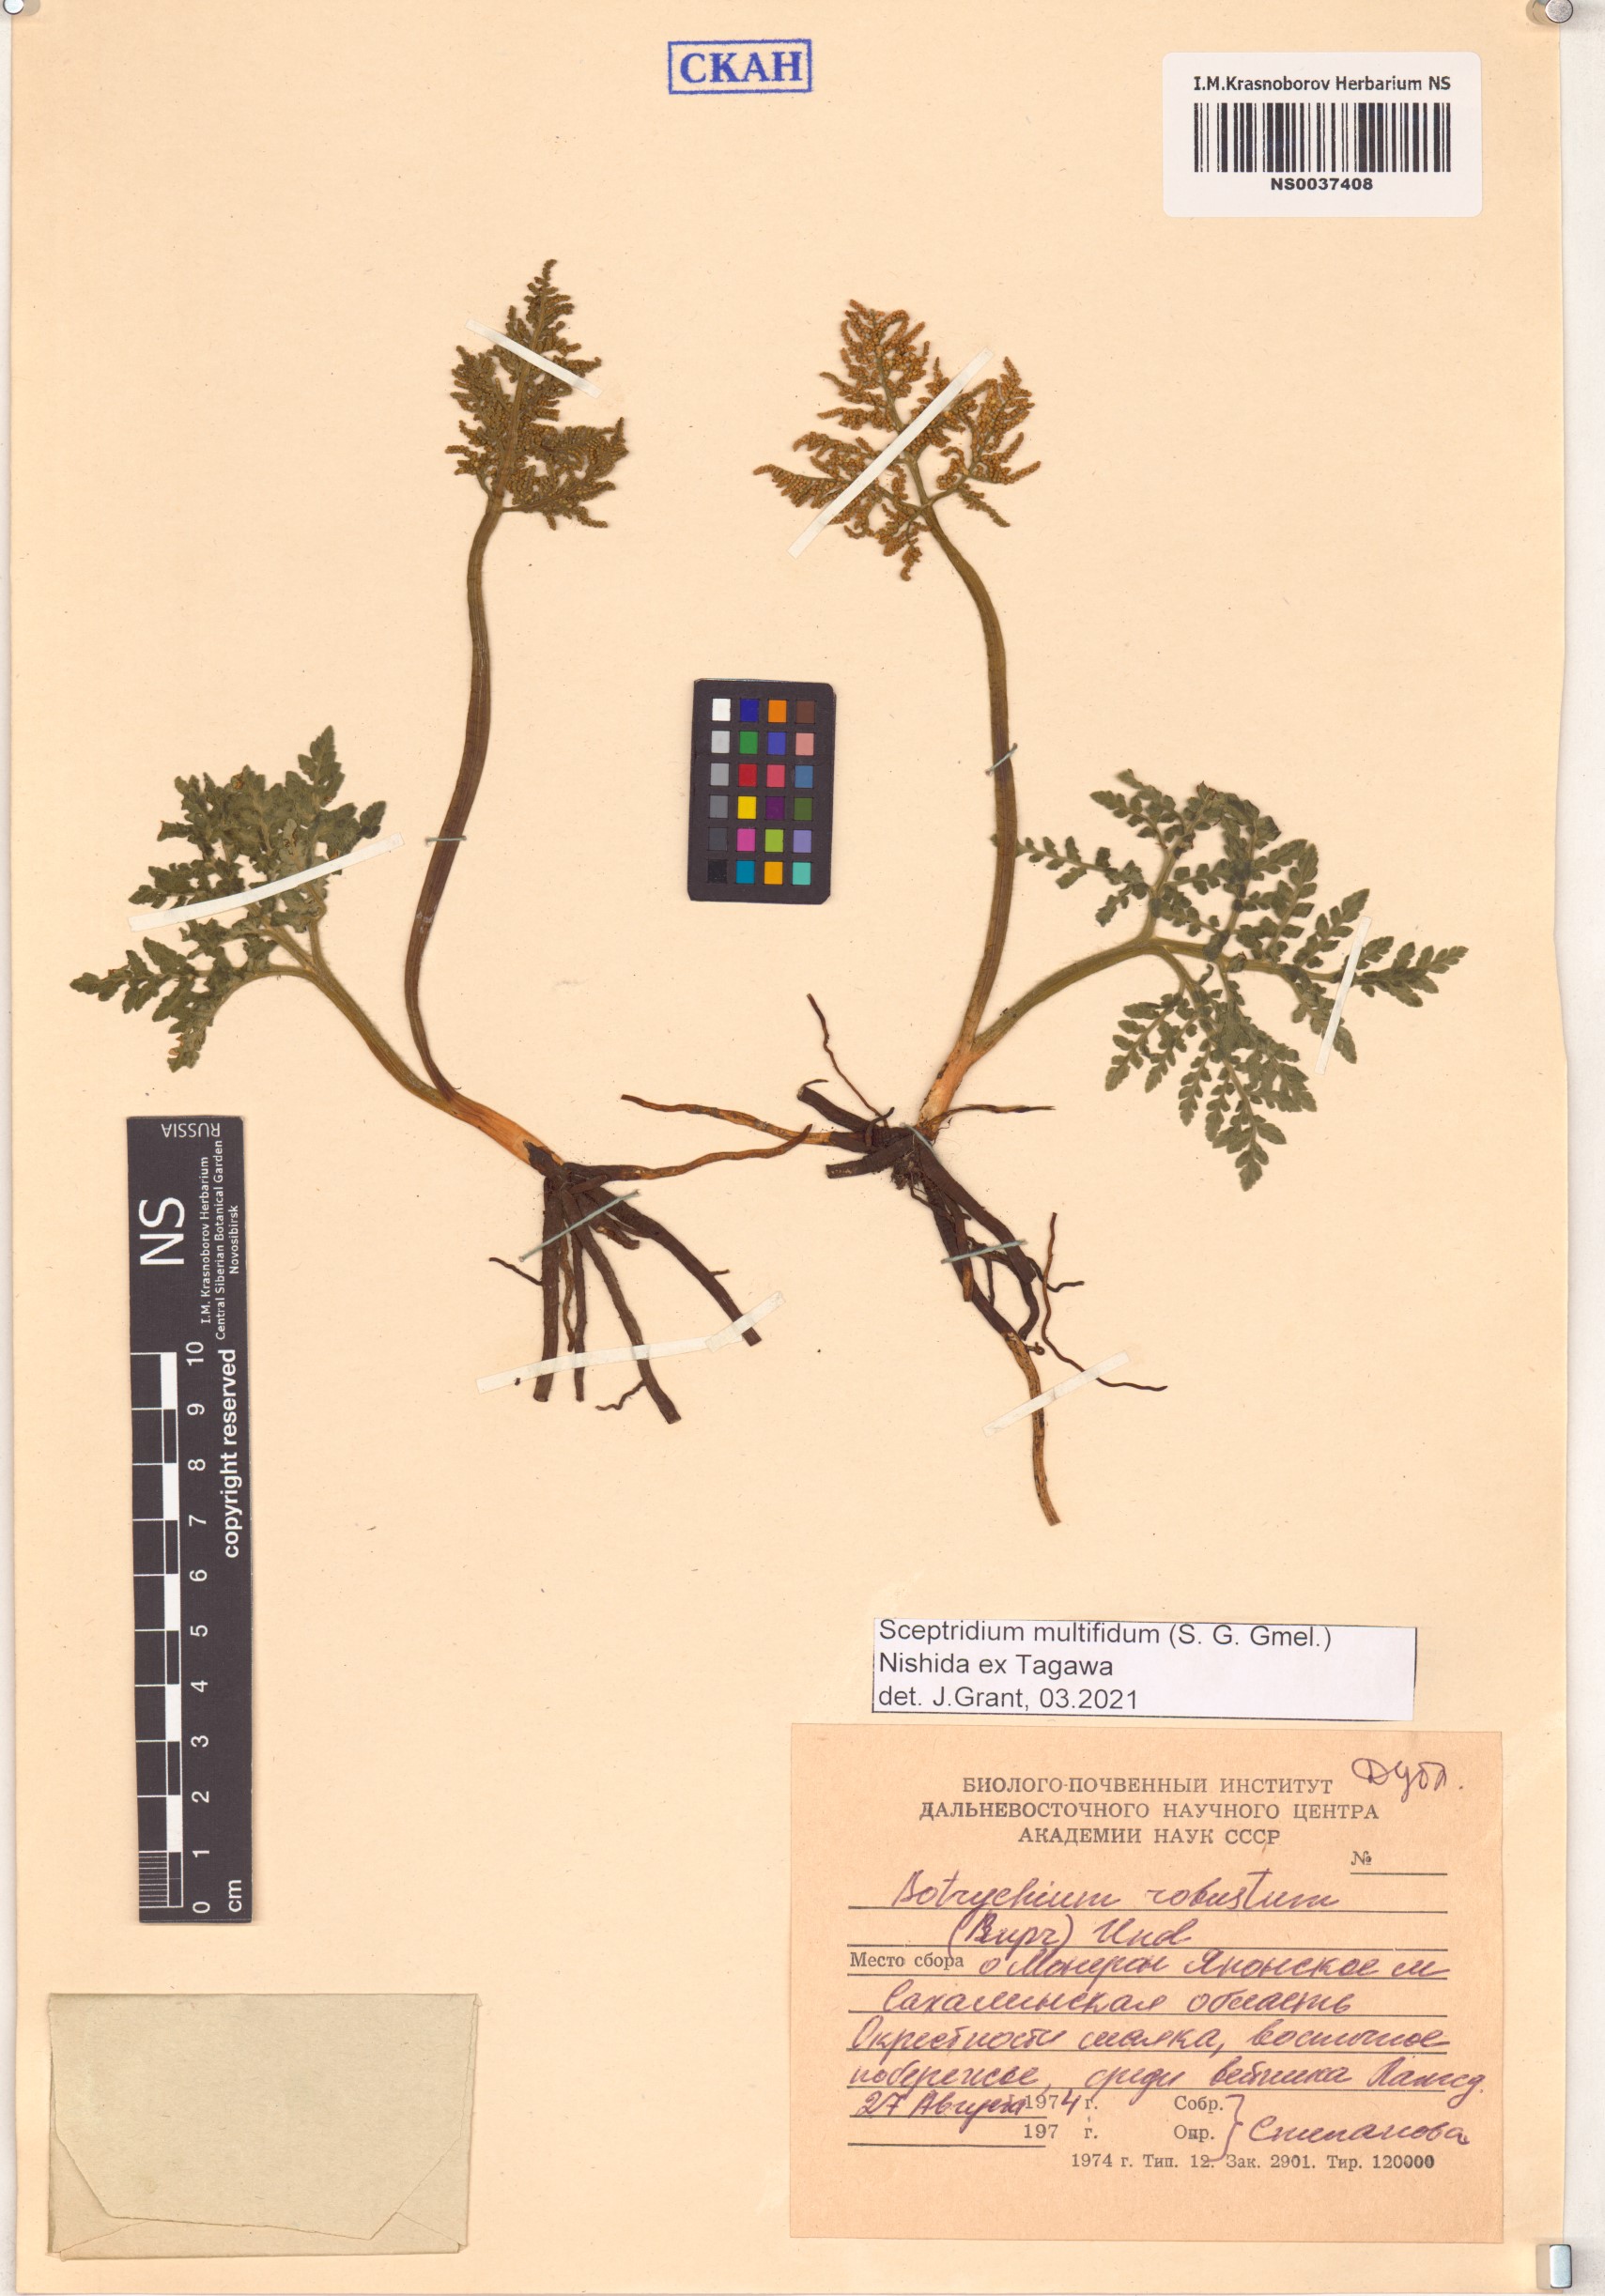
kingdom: Plantae
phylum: Tracheophyta
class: Polypodiopsida
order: Ophioglossales
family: Ophioglossaceae
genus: Sceptridium
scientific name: Sceptridium multifidum
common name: Leathery grape fern
